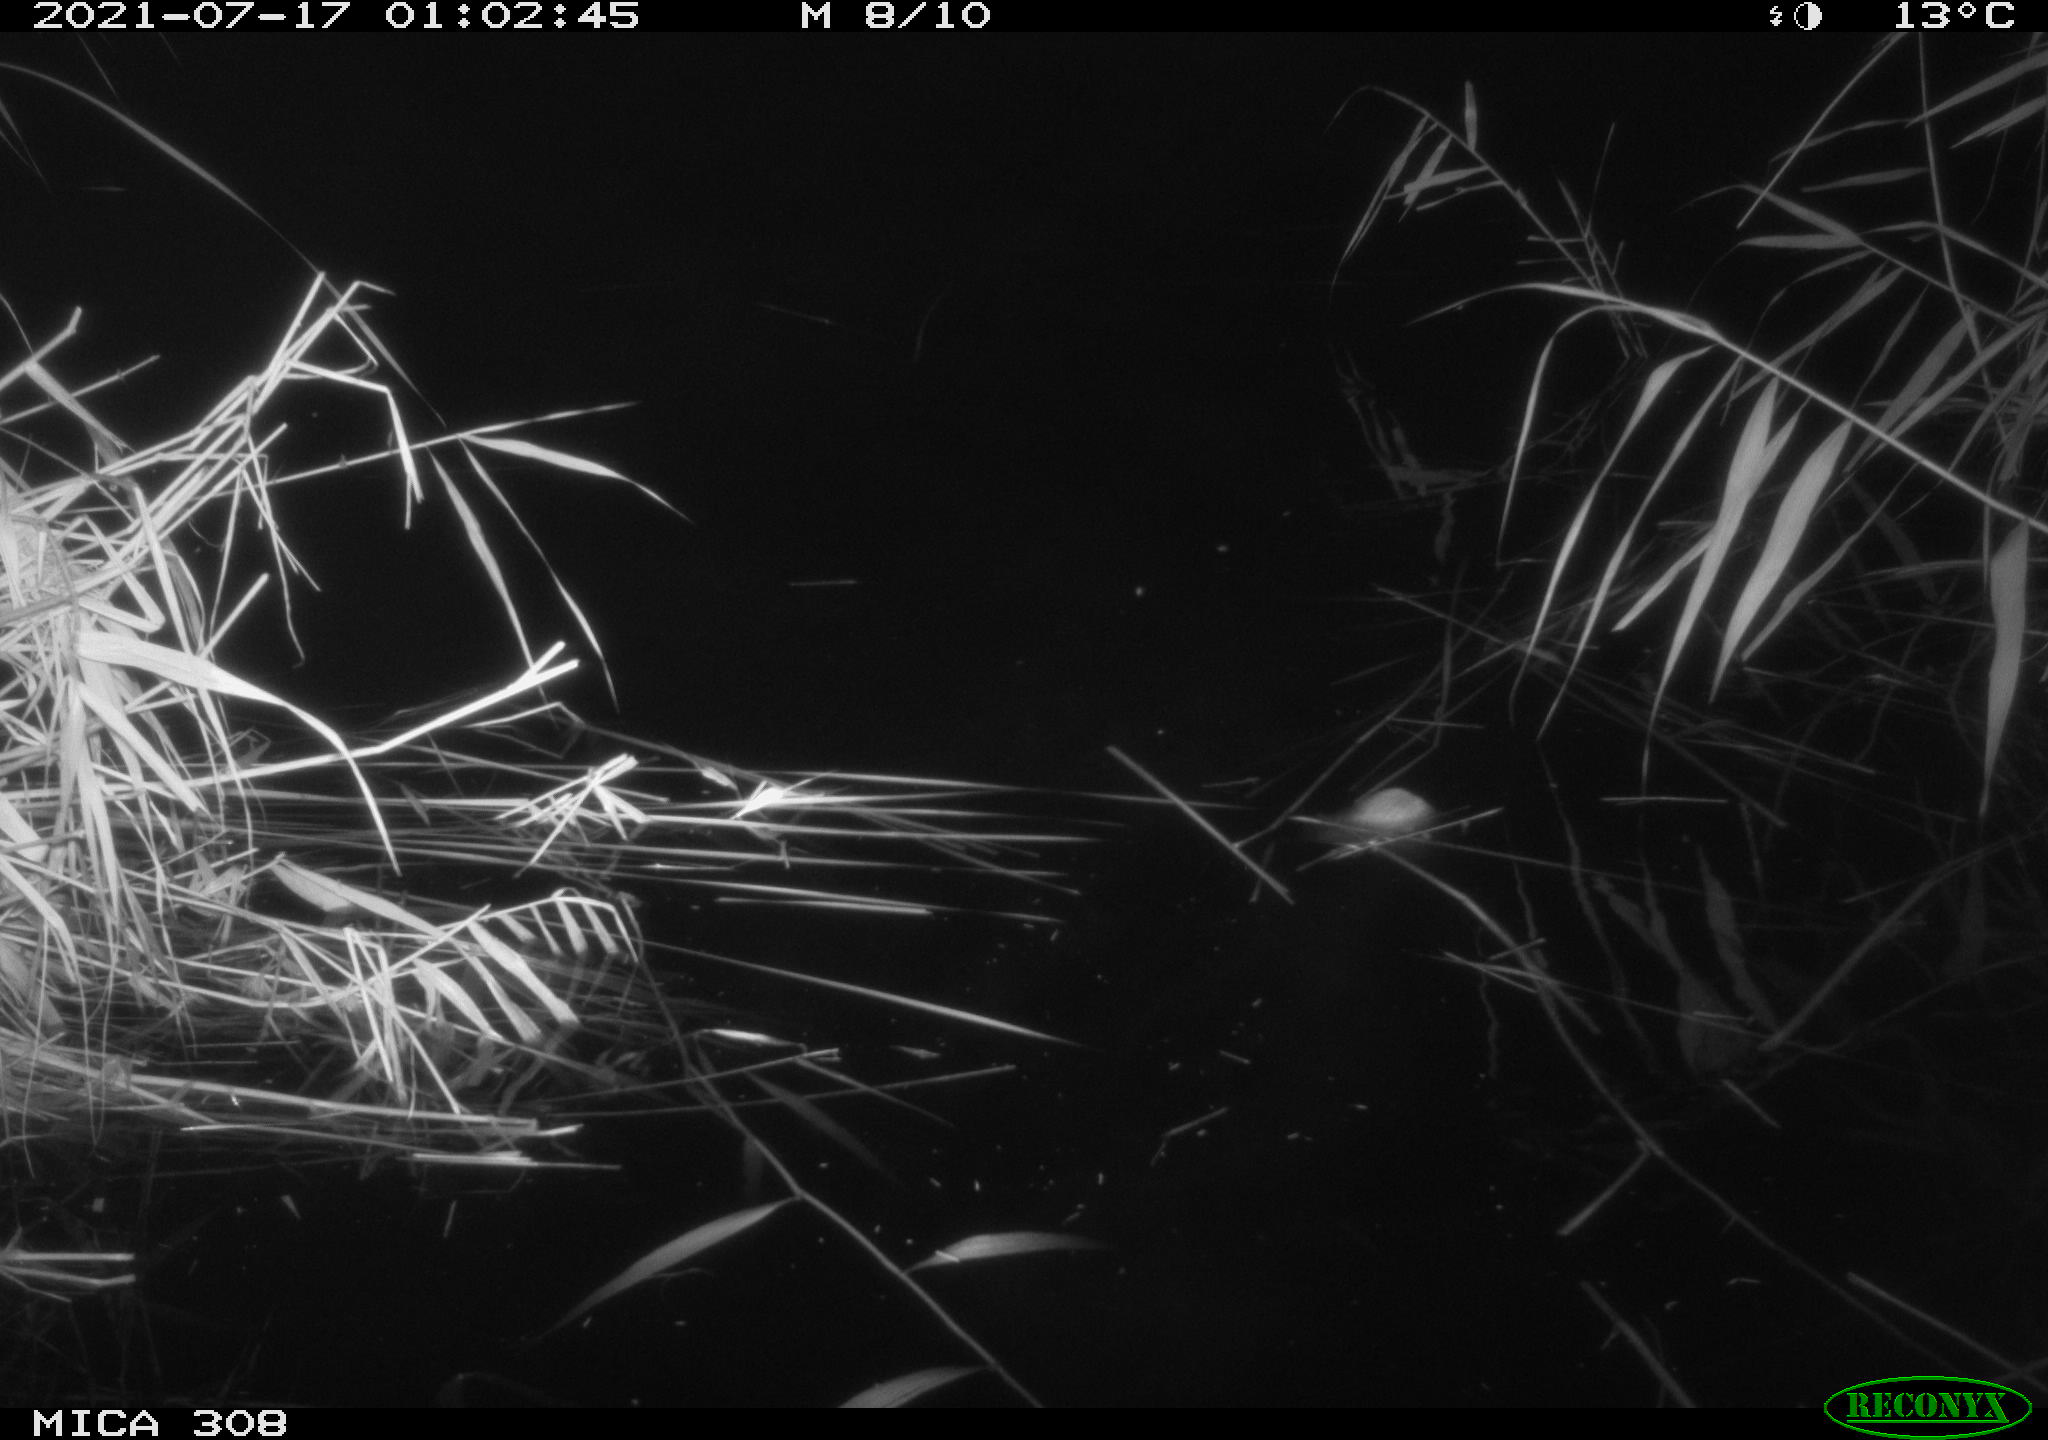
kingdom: Animalia
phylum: Chordata
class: Mammalia
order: Rodentia
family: Muridae
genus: Rattus
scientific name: Rattus norvegicus
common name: Brown rat
